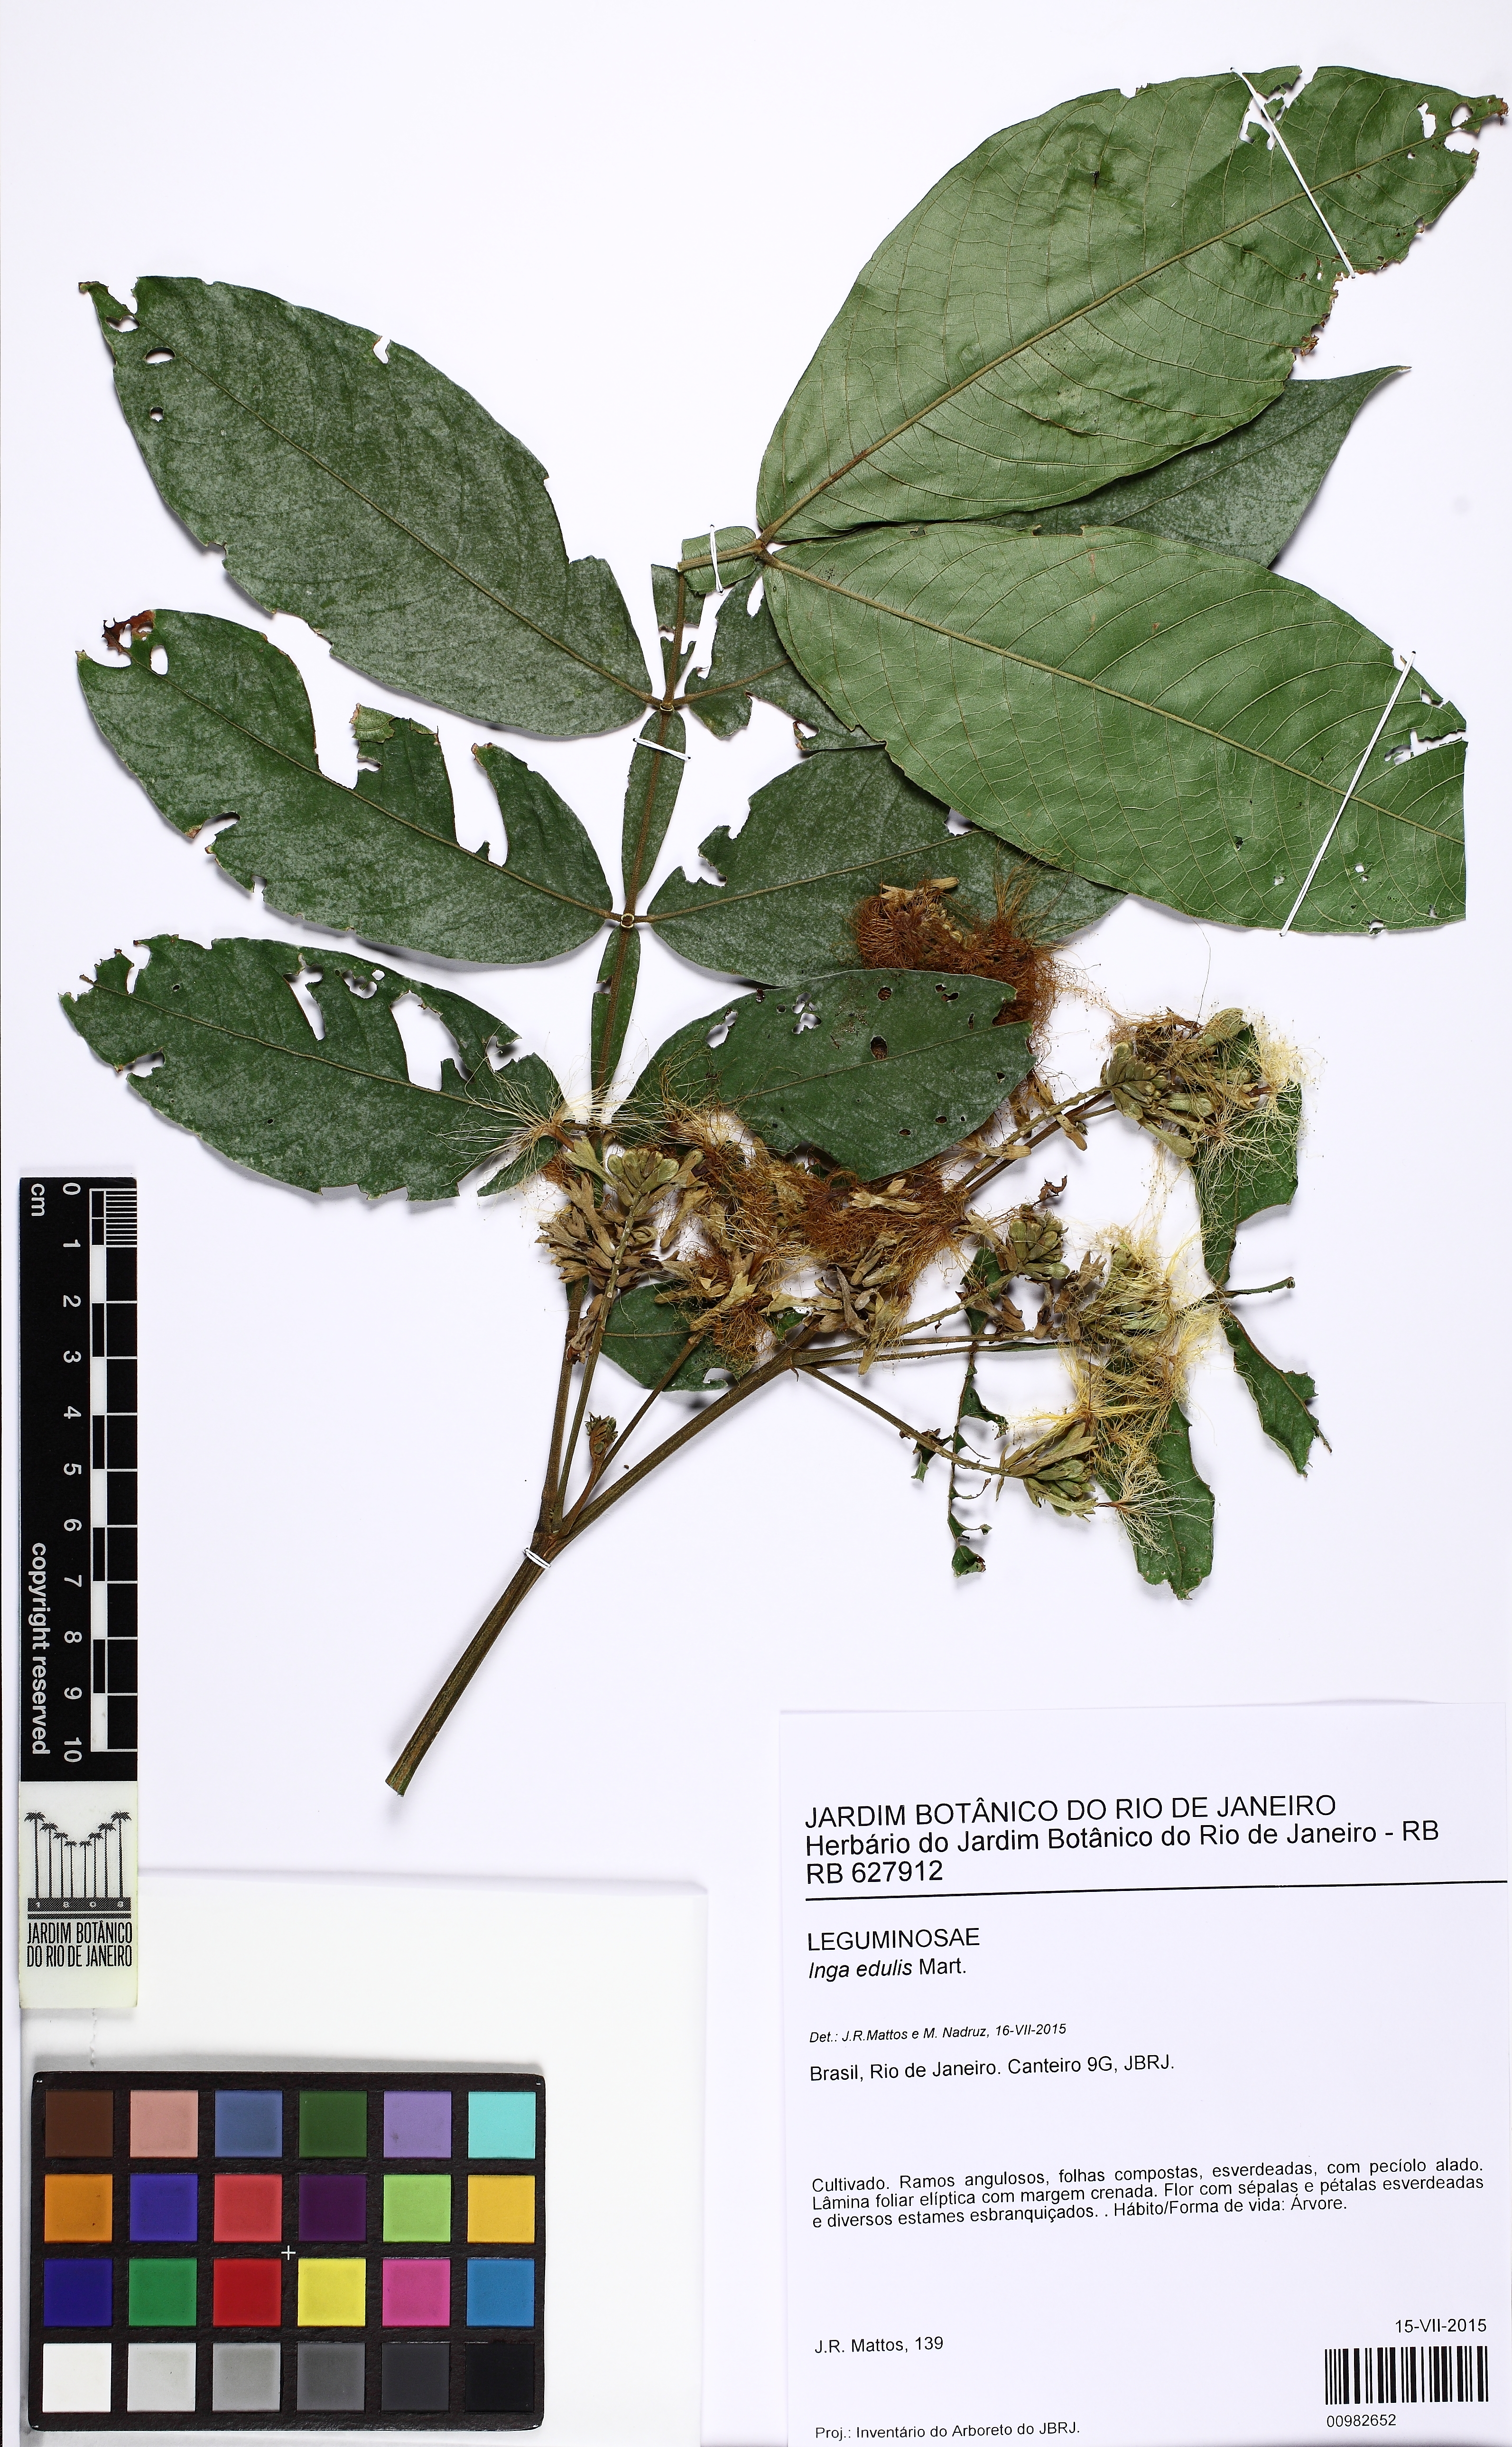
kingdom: Plantae
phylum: Tracheophyta
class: Magnoliopsida
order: Fabales
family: Fabaceae
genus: Inga
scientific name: Inga edulis
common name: Ice cream bean
